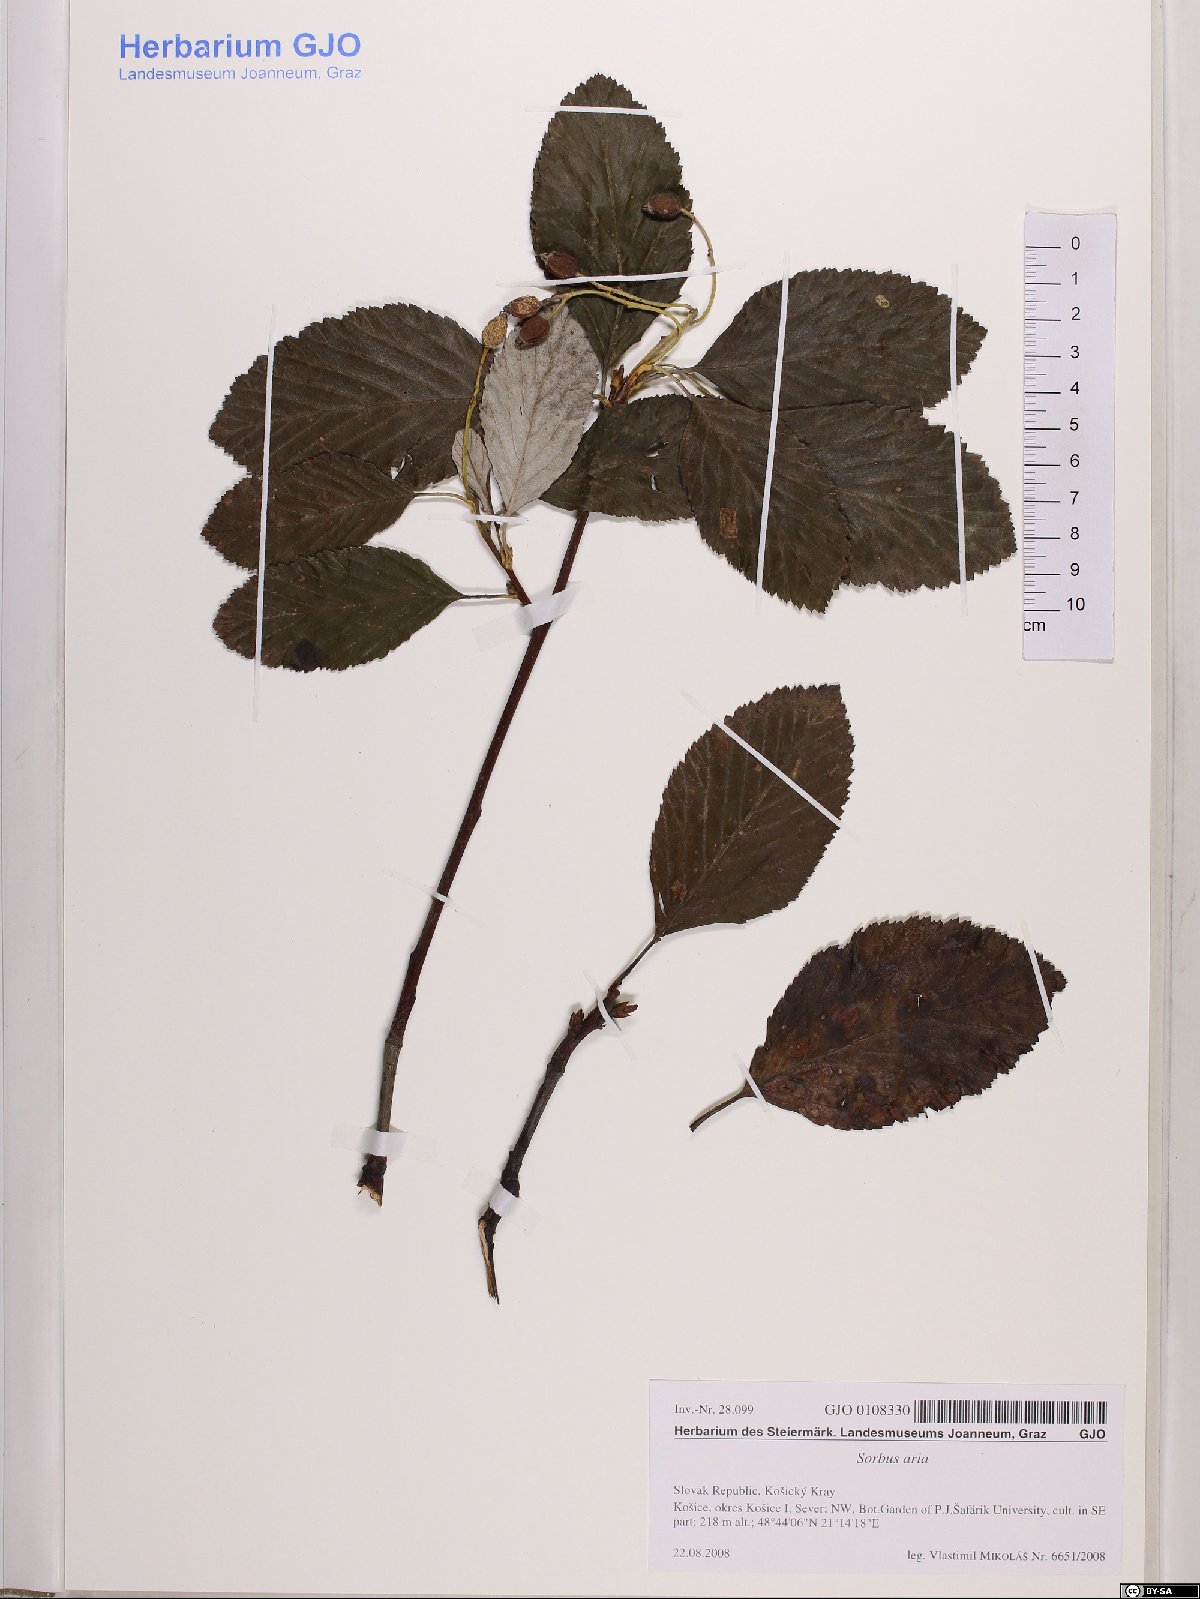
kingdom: Plantae
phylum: Tracheophyta
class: Magnoliopsida
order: Rosales
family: Rosaceae
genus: Aria
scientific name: Aria edulis
